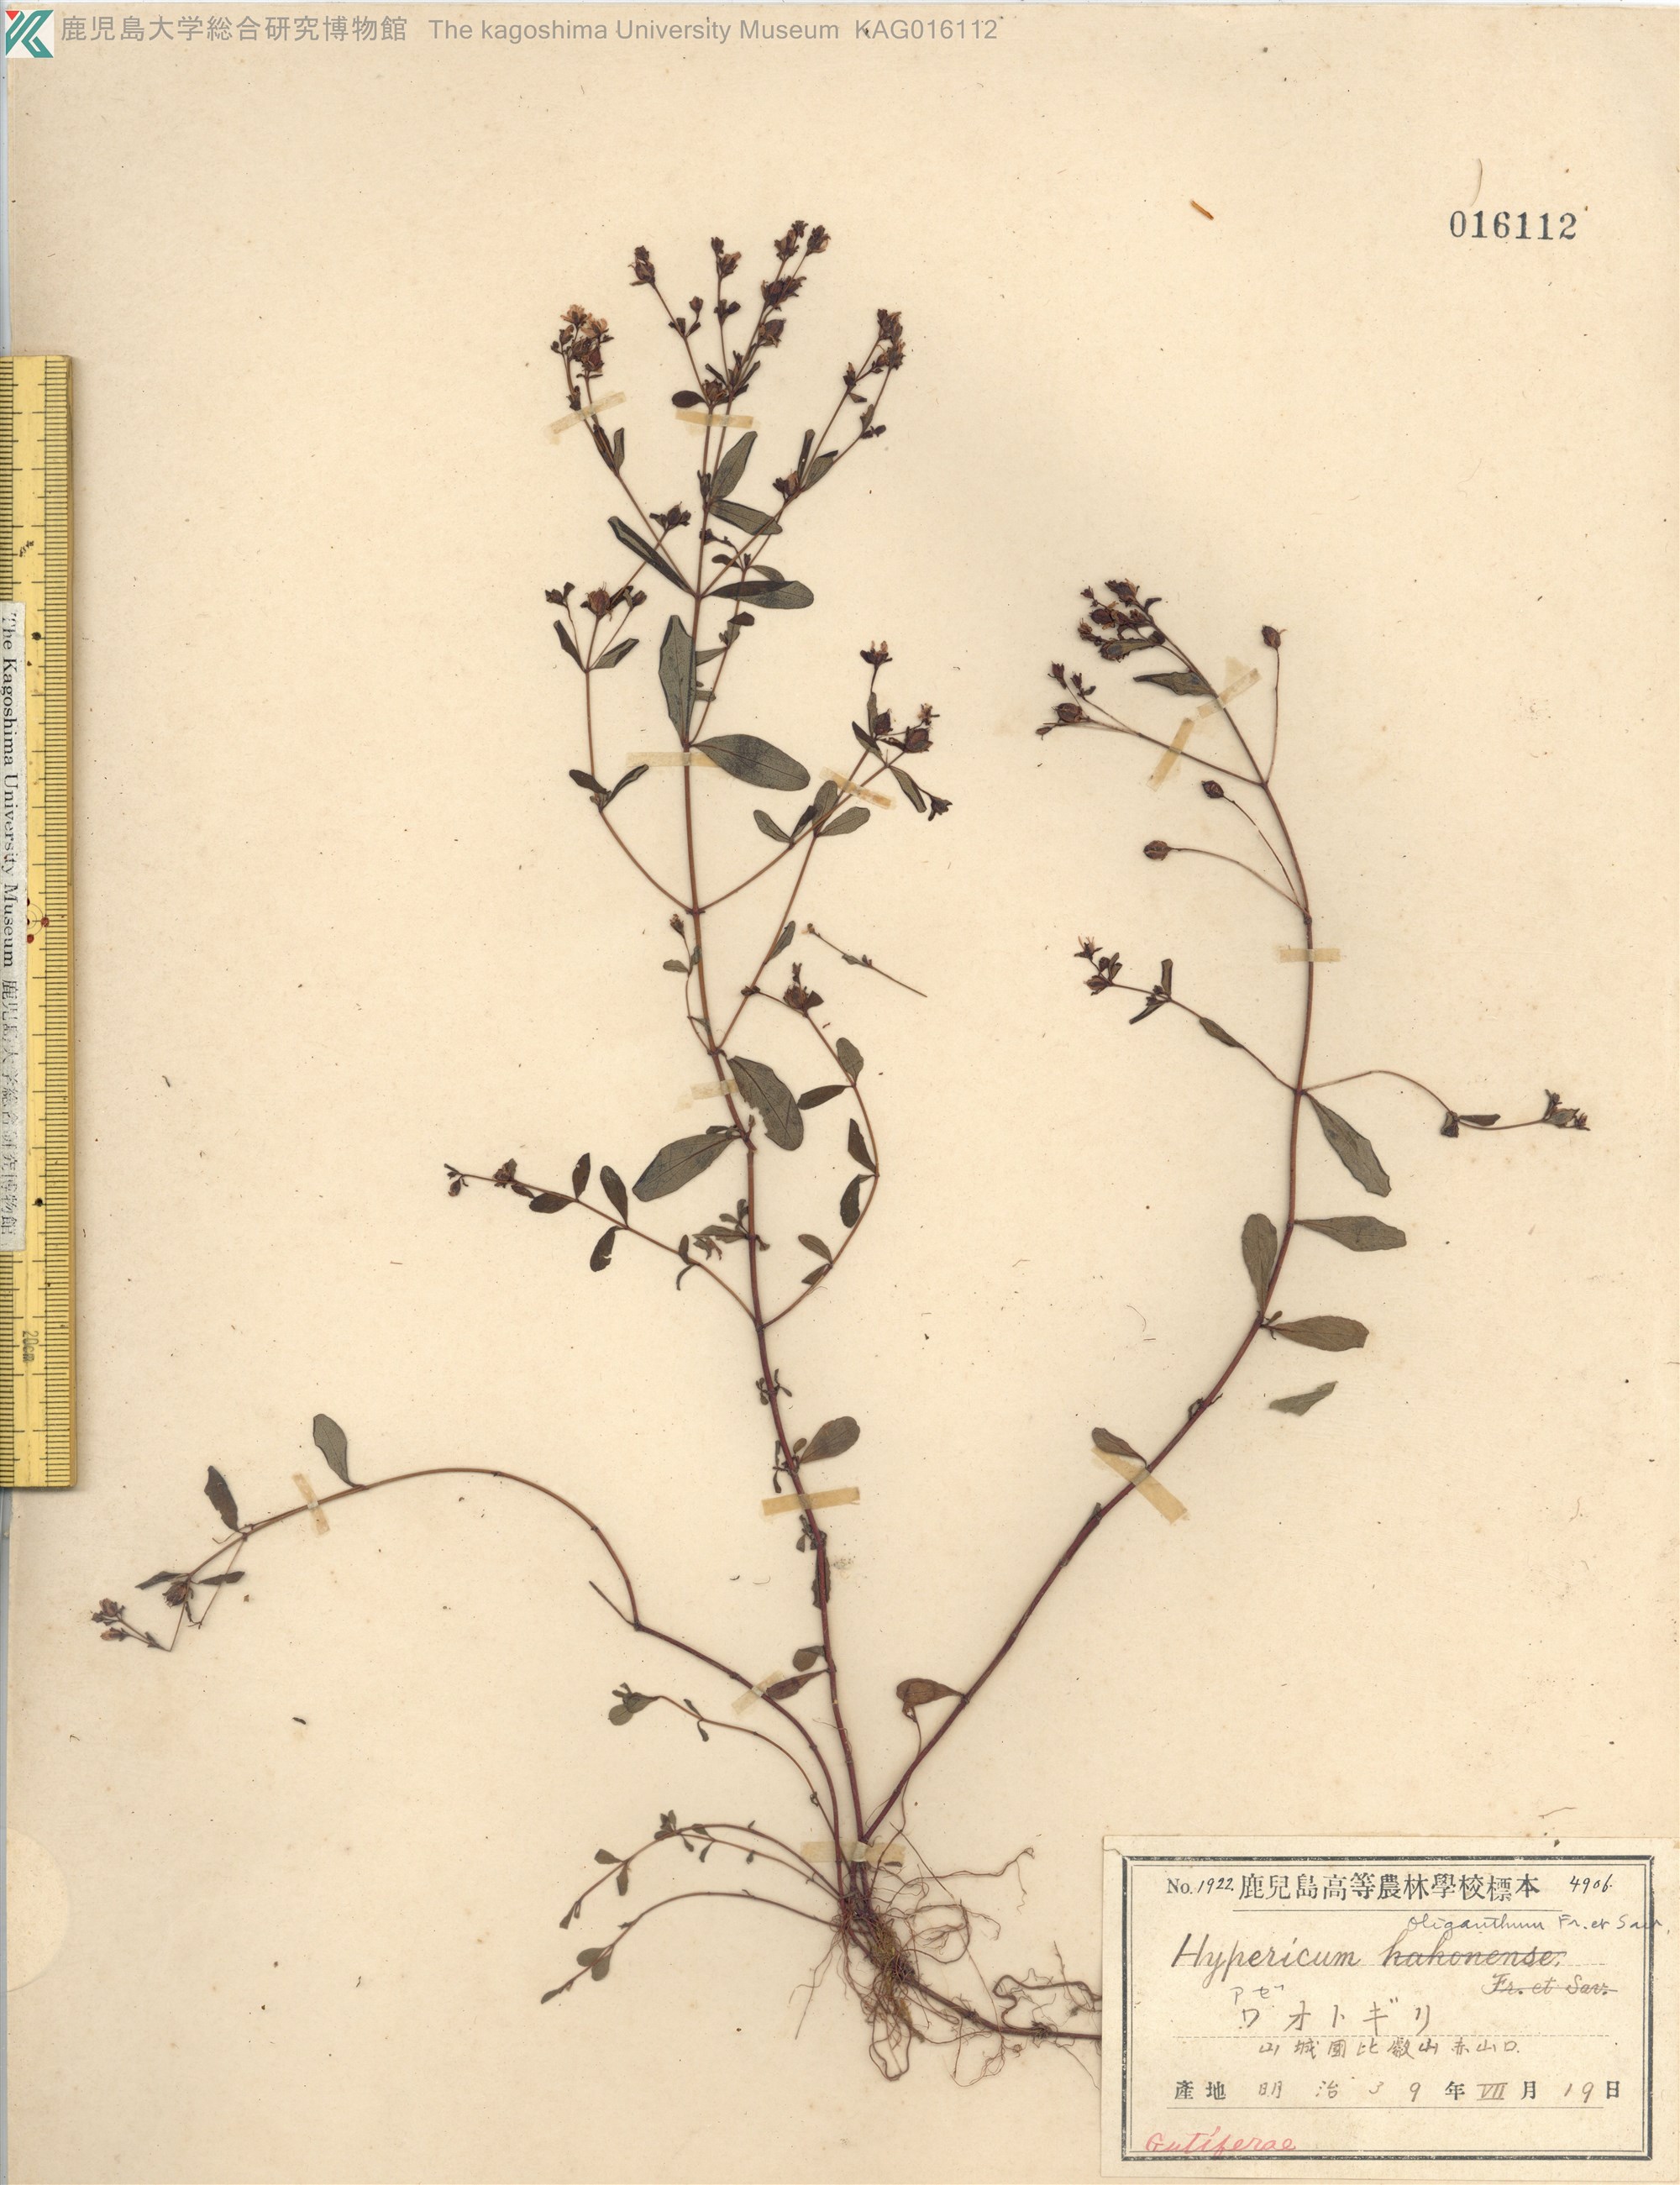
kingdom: Plantae
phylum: Tracheophyta
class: Magnoliopsida
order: Malpighiales
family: Hypericaceae
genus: Hypericum
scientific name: Hypericum pseudopetiolatum
